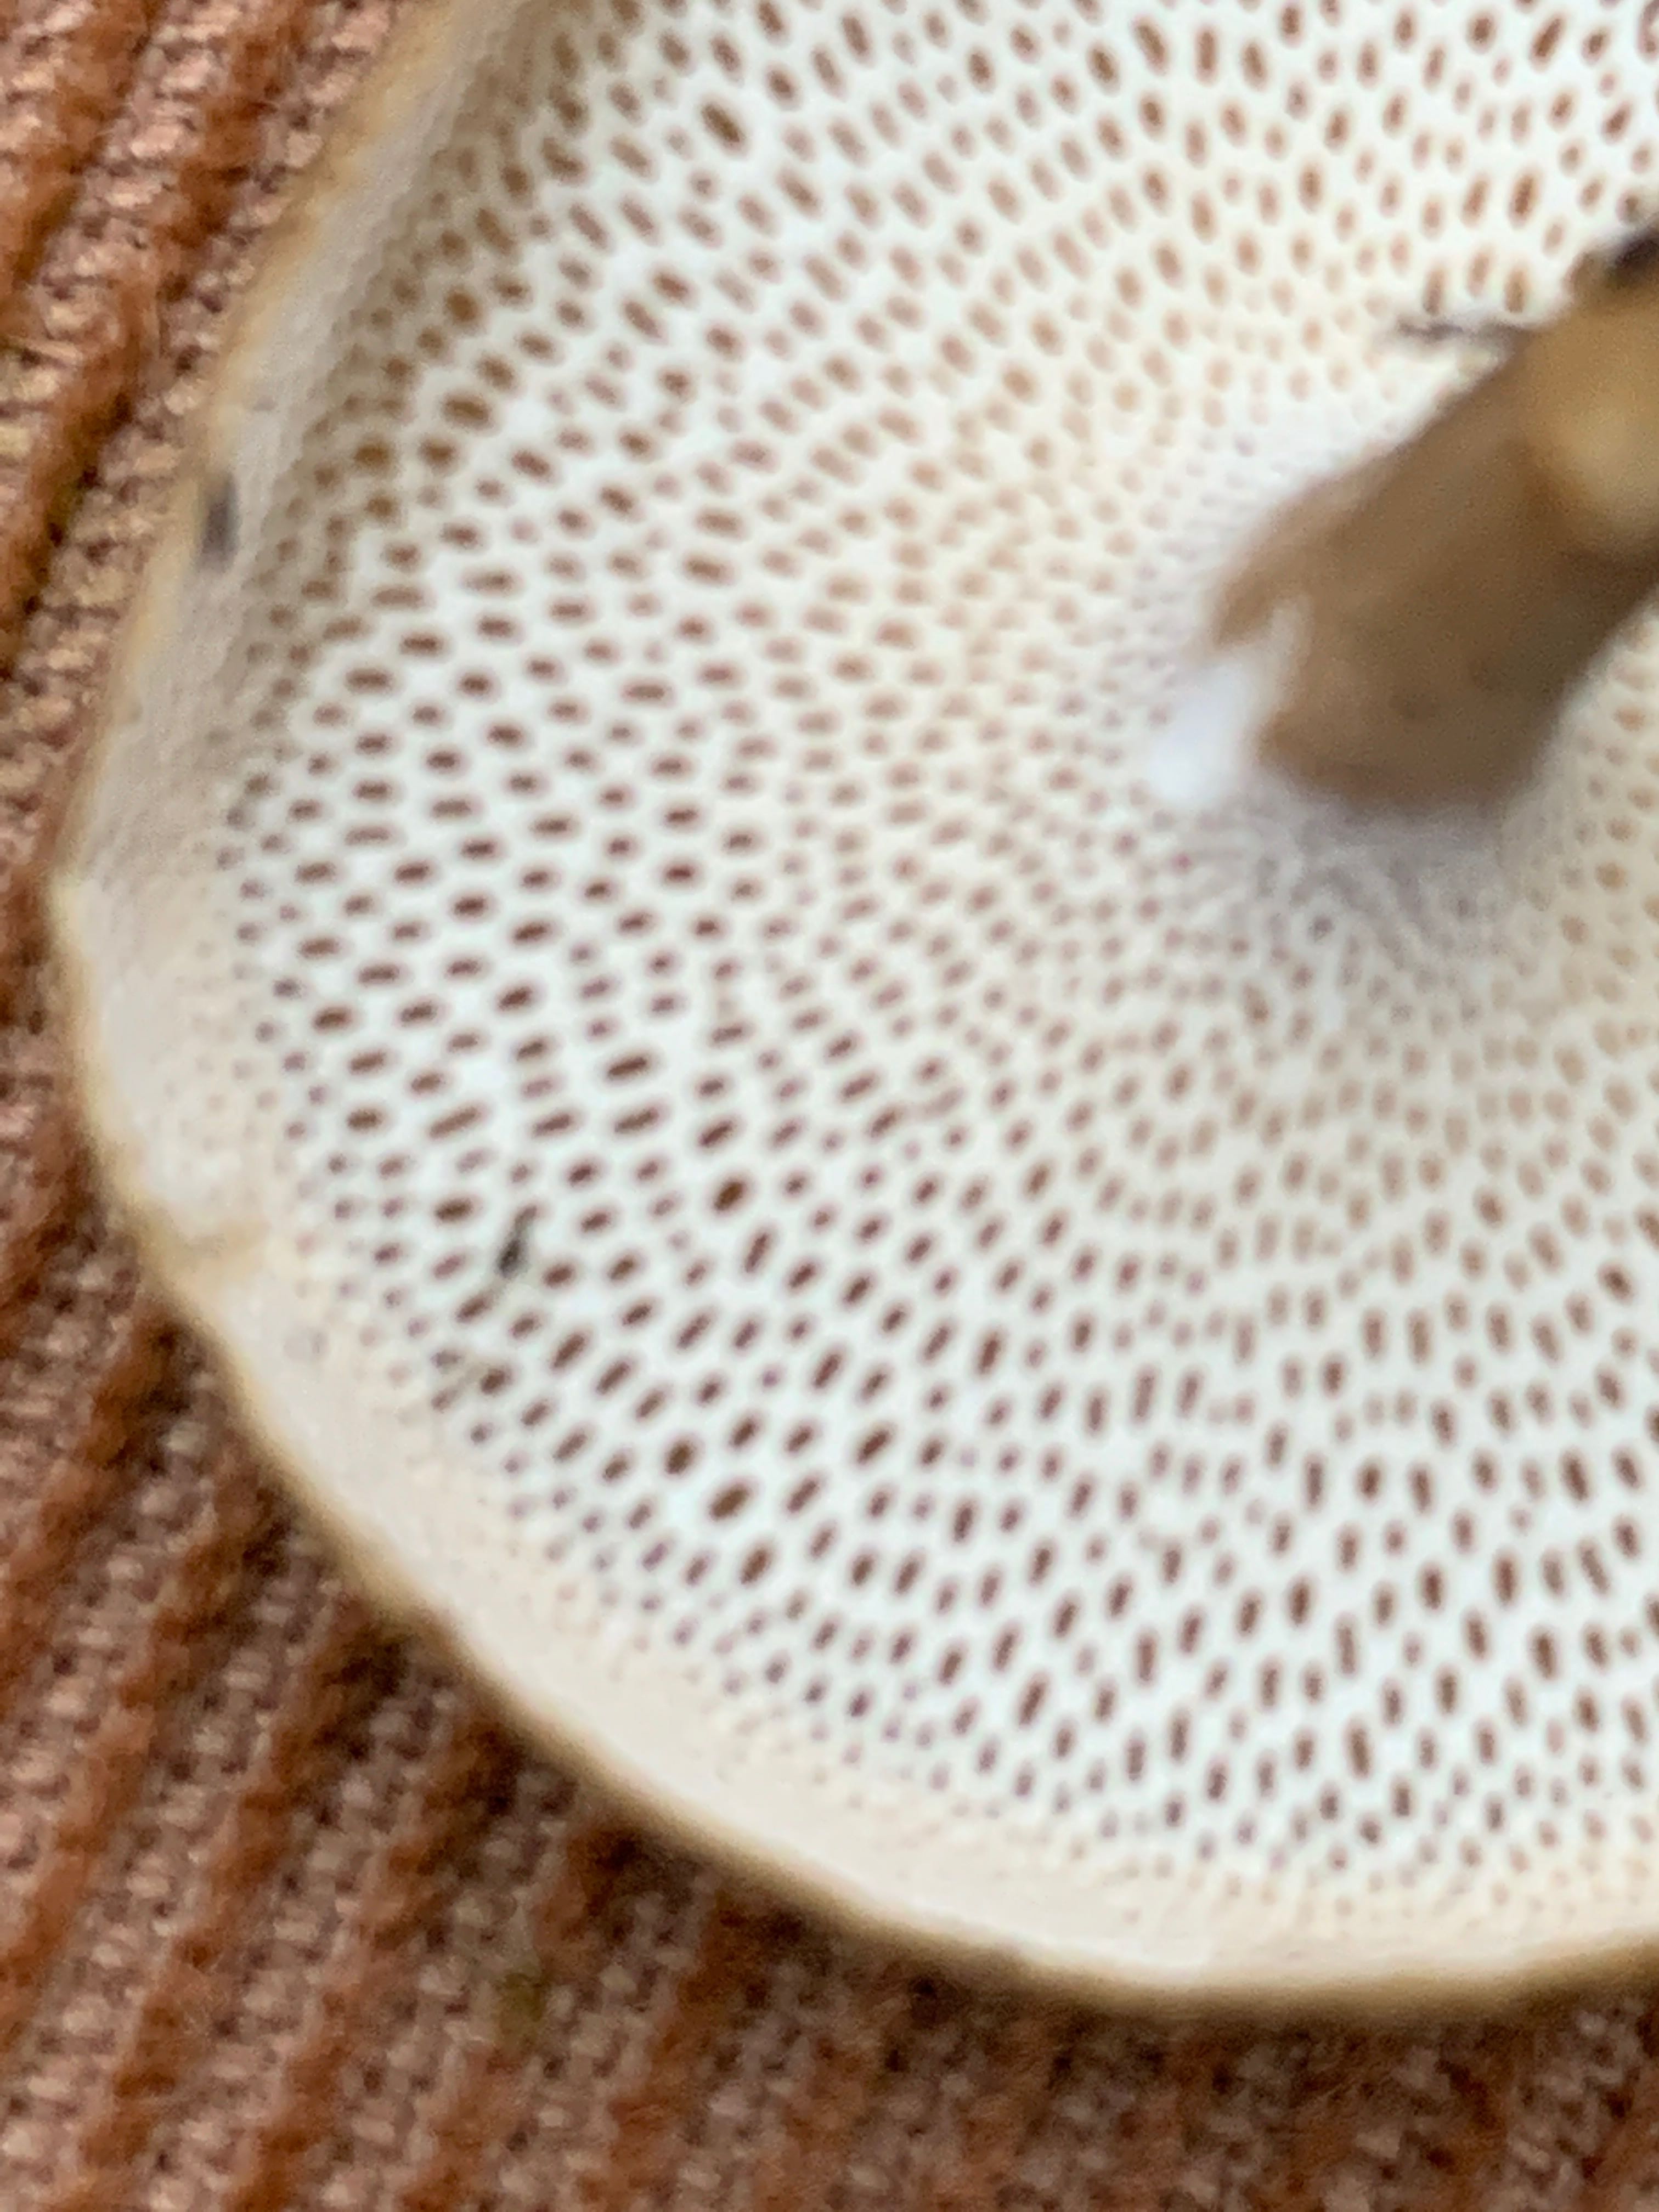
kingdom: Fungi
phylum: Basidiomycota
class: Agaricomycetes
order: Polyporales
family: Polyporaceae
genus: Lentinus
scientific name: Lentinus brumalis
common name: vinter-stilkporesvamp
